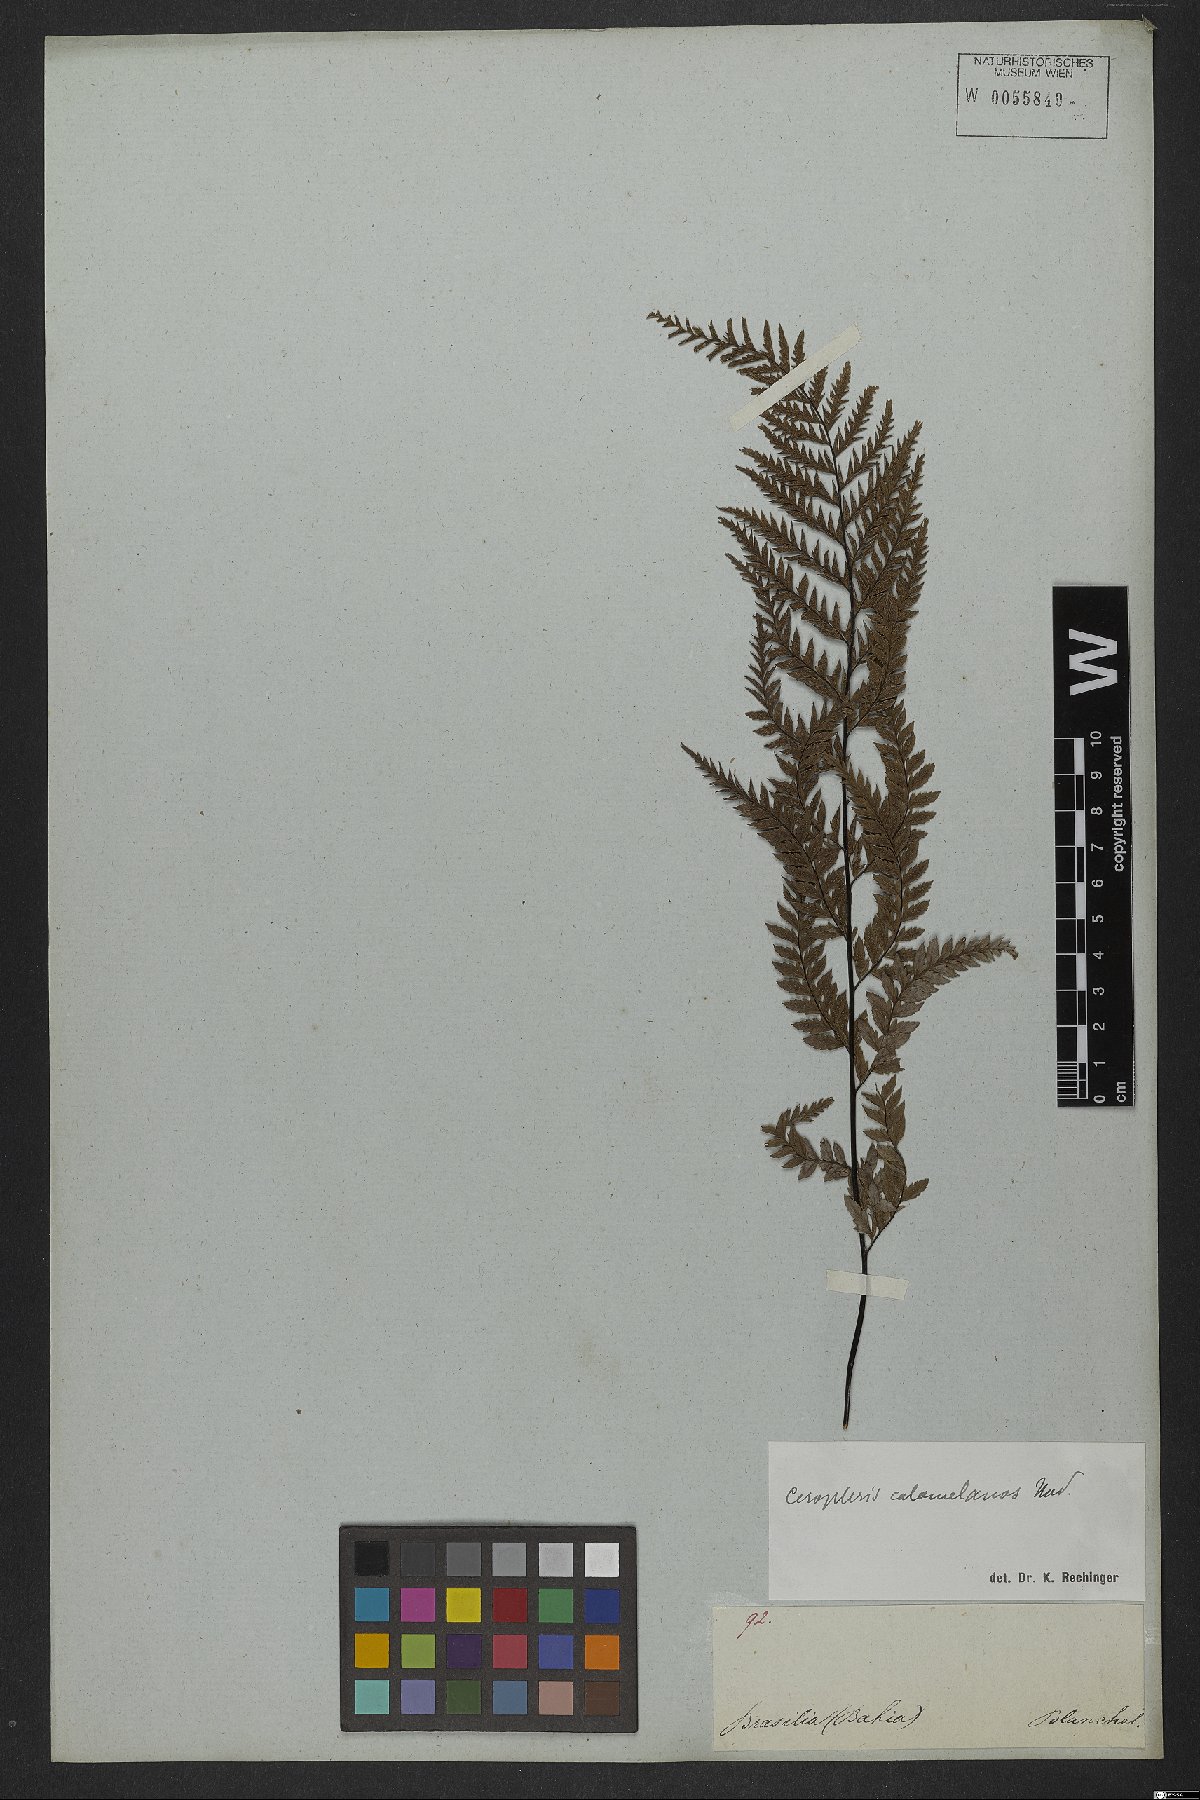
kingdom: Plantae
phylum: Tracheophyta
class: Polypodiopsida
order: Polypodiales
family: Pteridaceae
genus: Pityrogramma
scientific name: Pityrogramma calomelanos
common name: Dixie silverback fern
